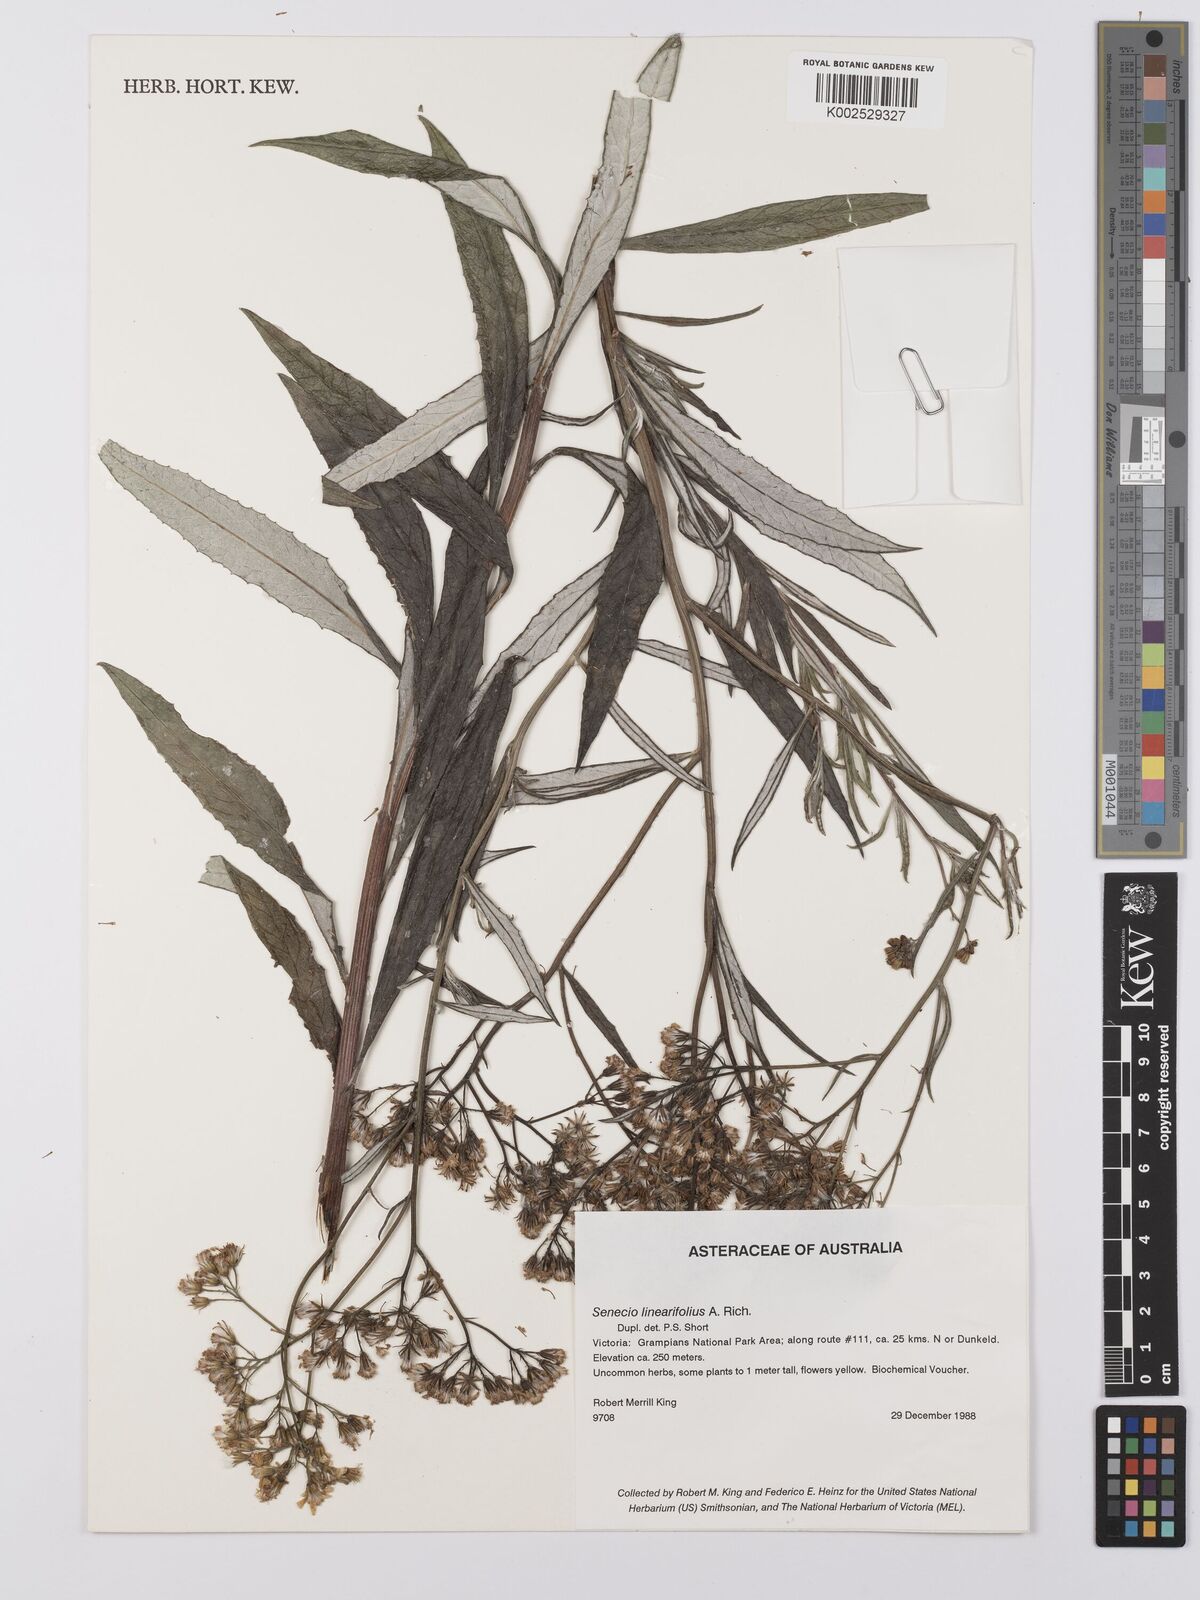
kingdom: Plantae
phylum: Tracheophyta
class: Magnoliopsida
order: Asterales
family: Asteraceae
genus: Senecio
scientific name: Senecio linearifolius
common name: Fireweed groundsel
